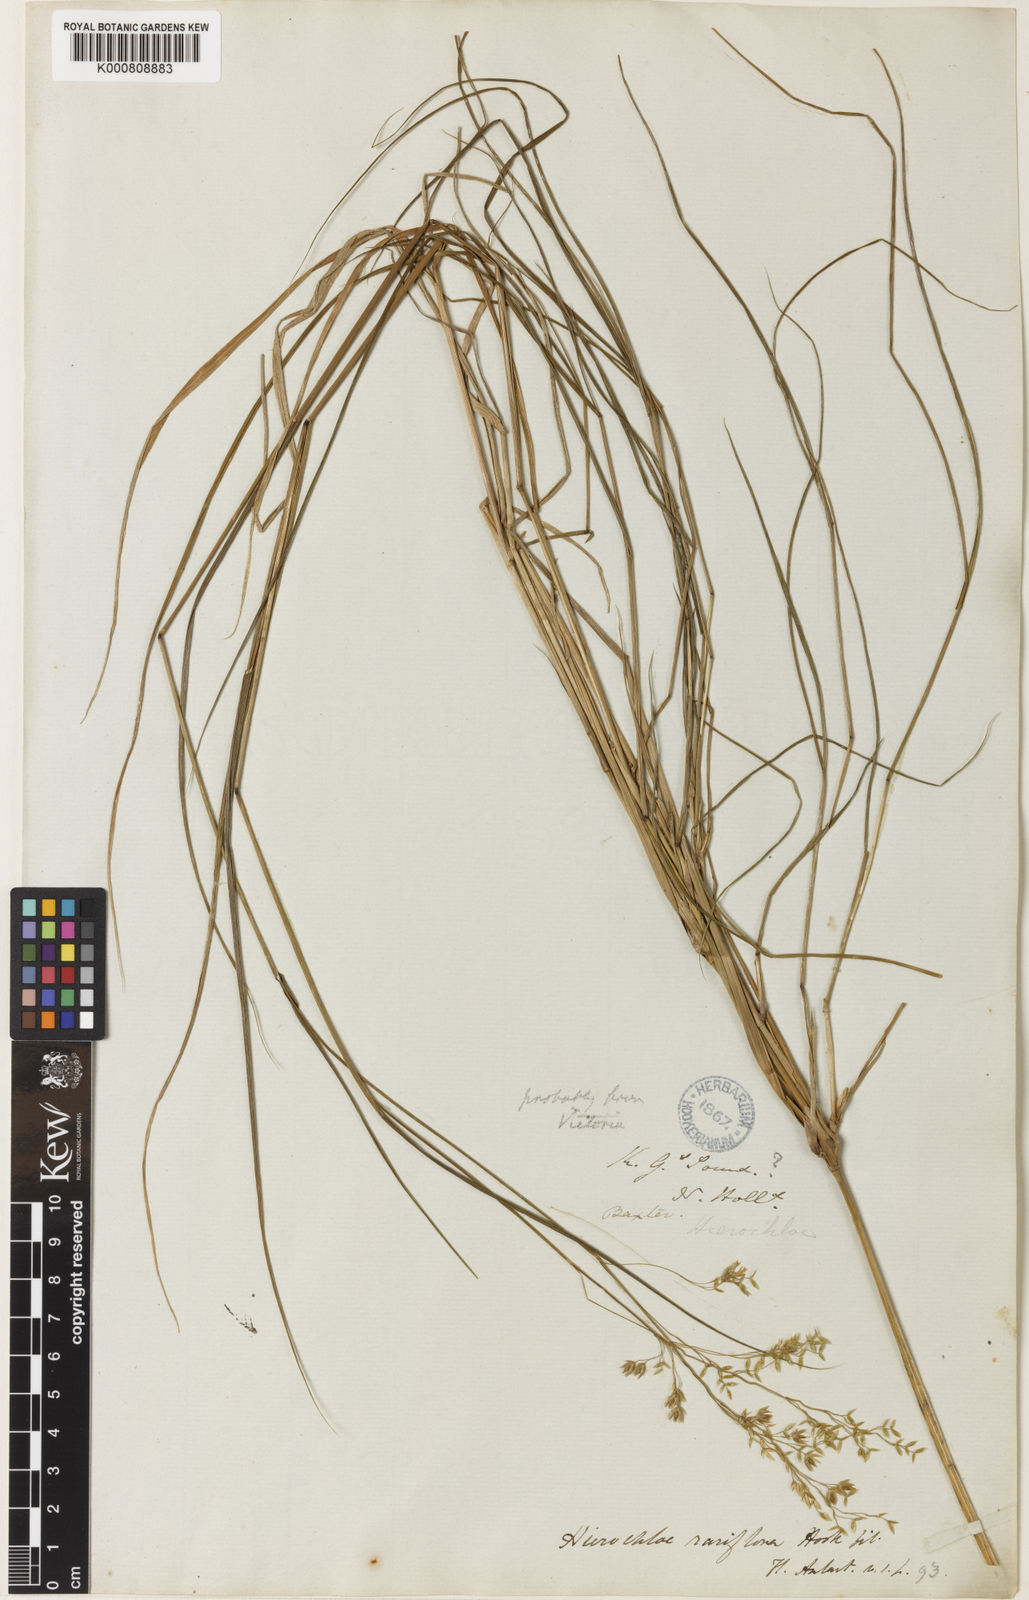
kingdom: Plantae
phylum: Tracheophyta
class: Liliopsida
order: Poales
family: Poaceae
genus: Anthoxanthum
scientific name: Anthoxanthum rariflorum
